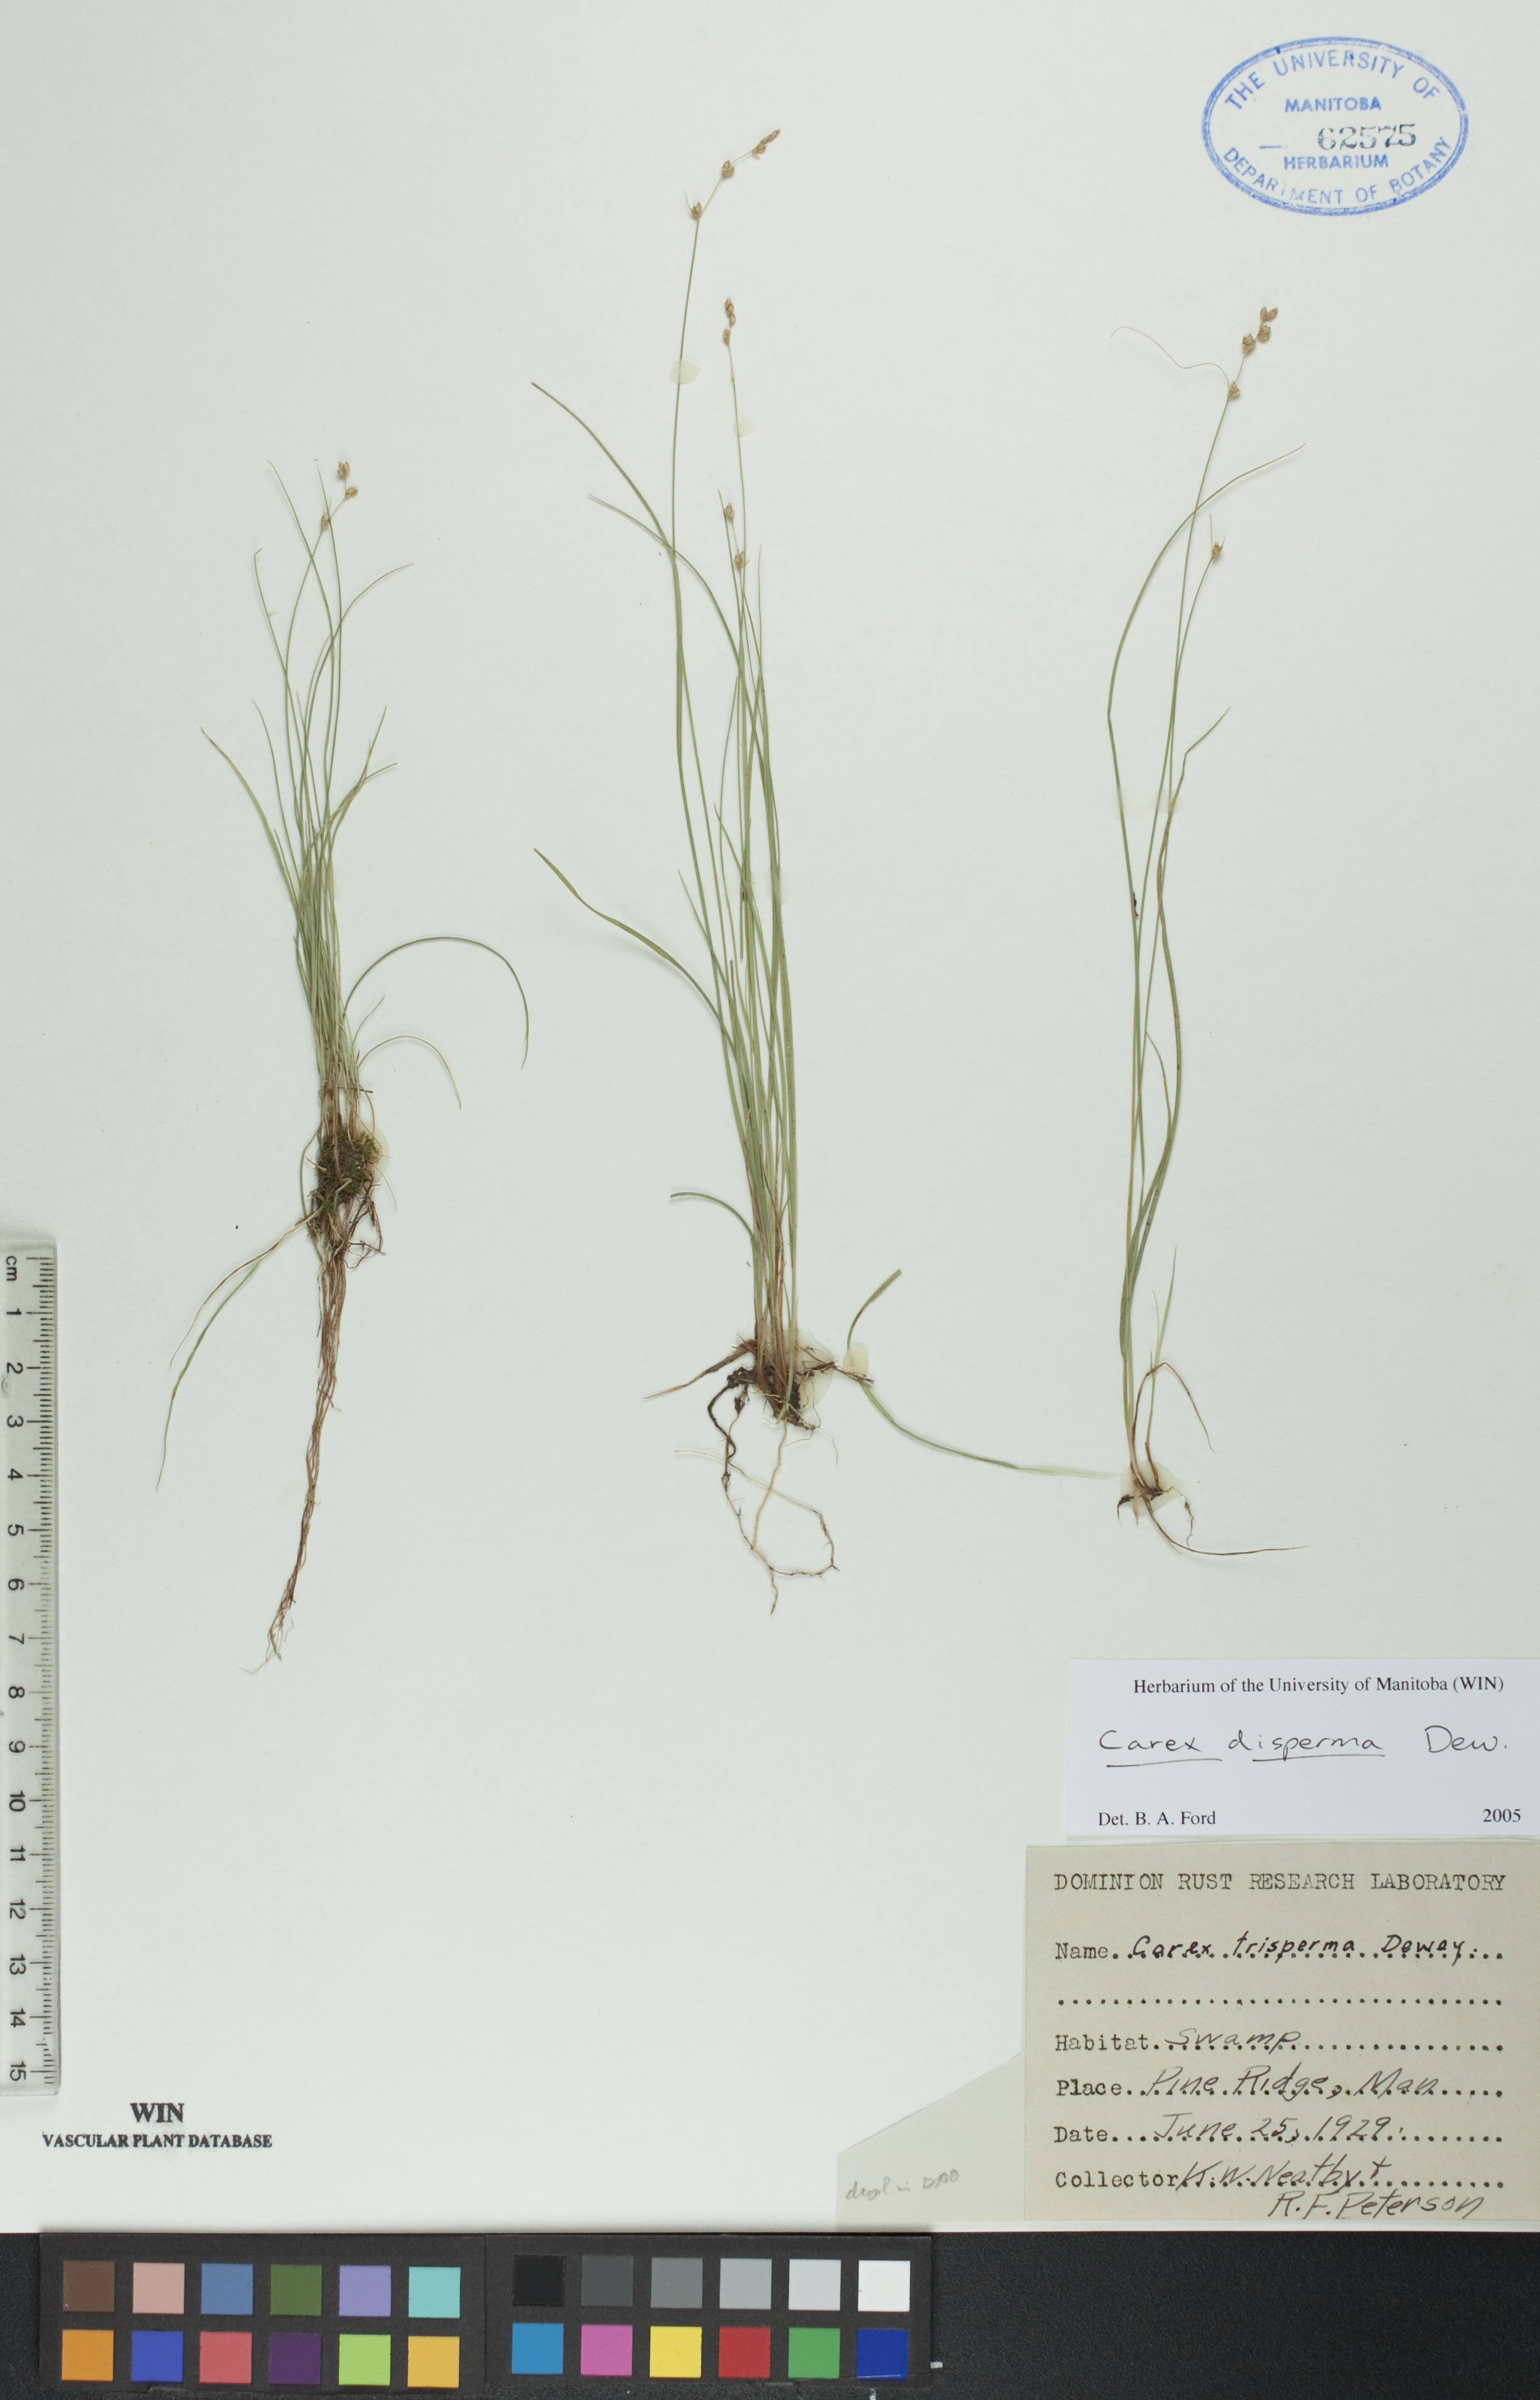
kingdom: Plantae
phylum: Tracheophyta
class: Liliopsida
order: Poales
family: Cyperaceae
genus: Carex
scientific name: Carex disperma
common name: Short-leaved sedge
